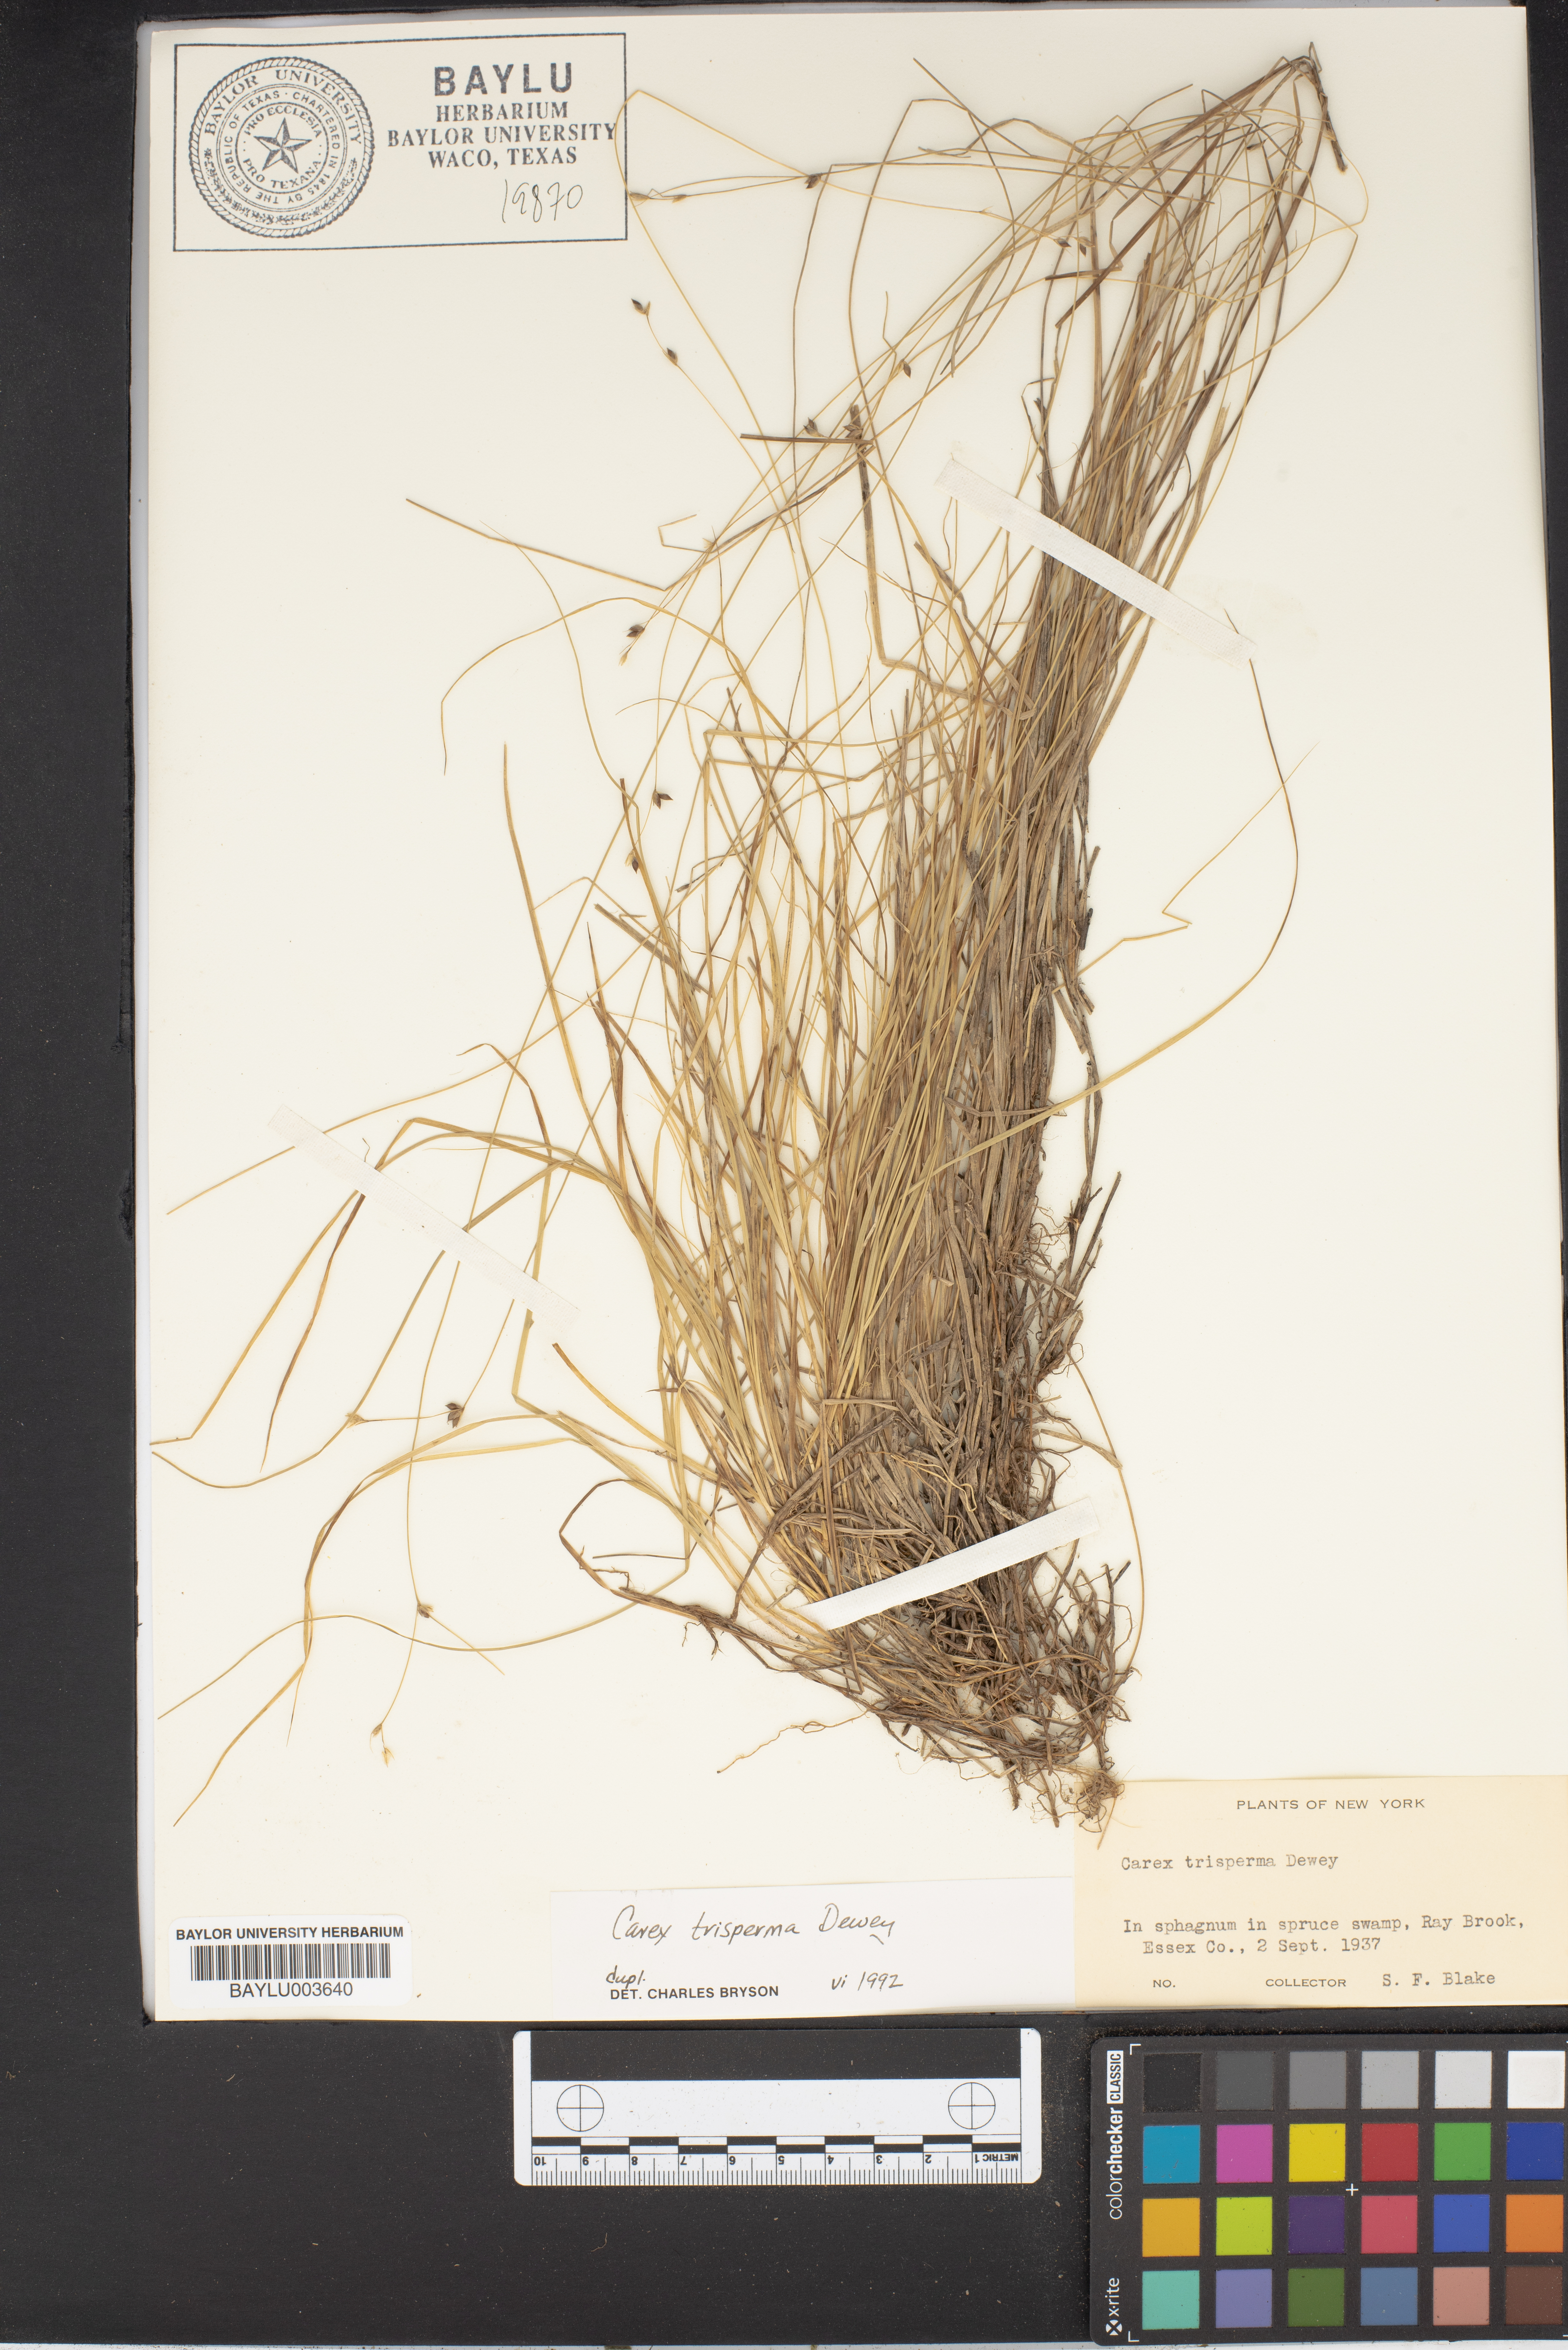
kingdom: Plantae
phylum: Tracheophyta
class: Liliopsida
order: Poales
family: Cyperaceae
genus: Carex
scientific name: Carex trisperma
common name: Three-seeded sedge
